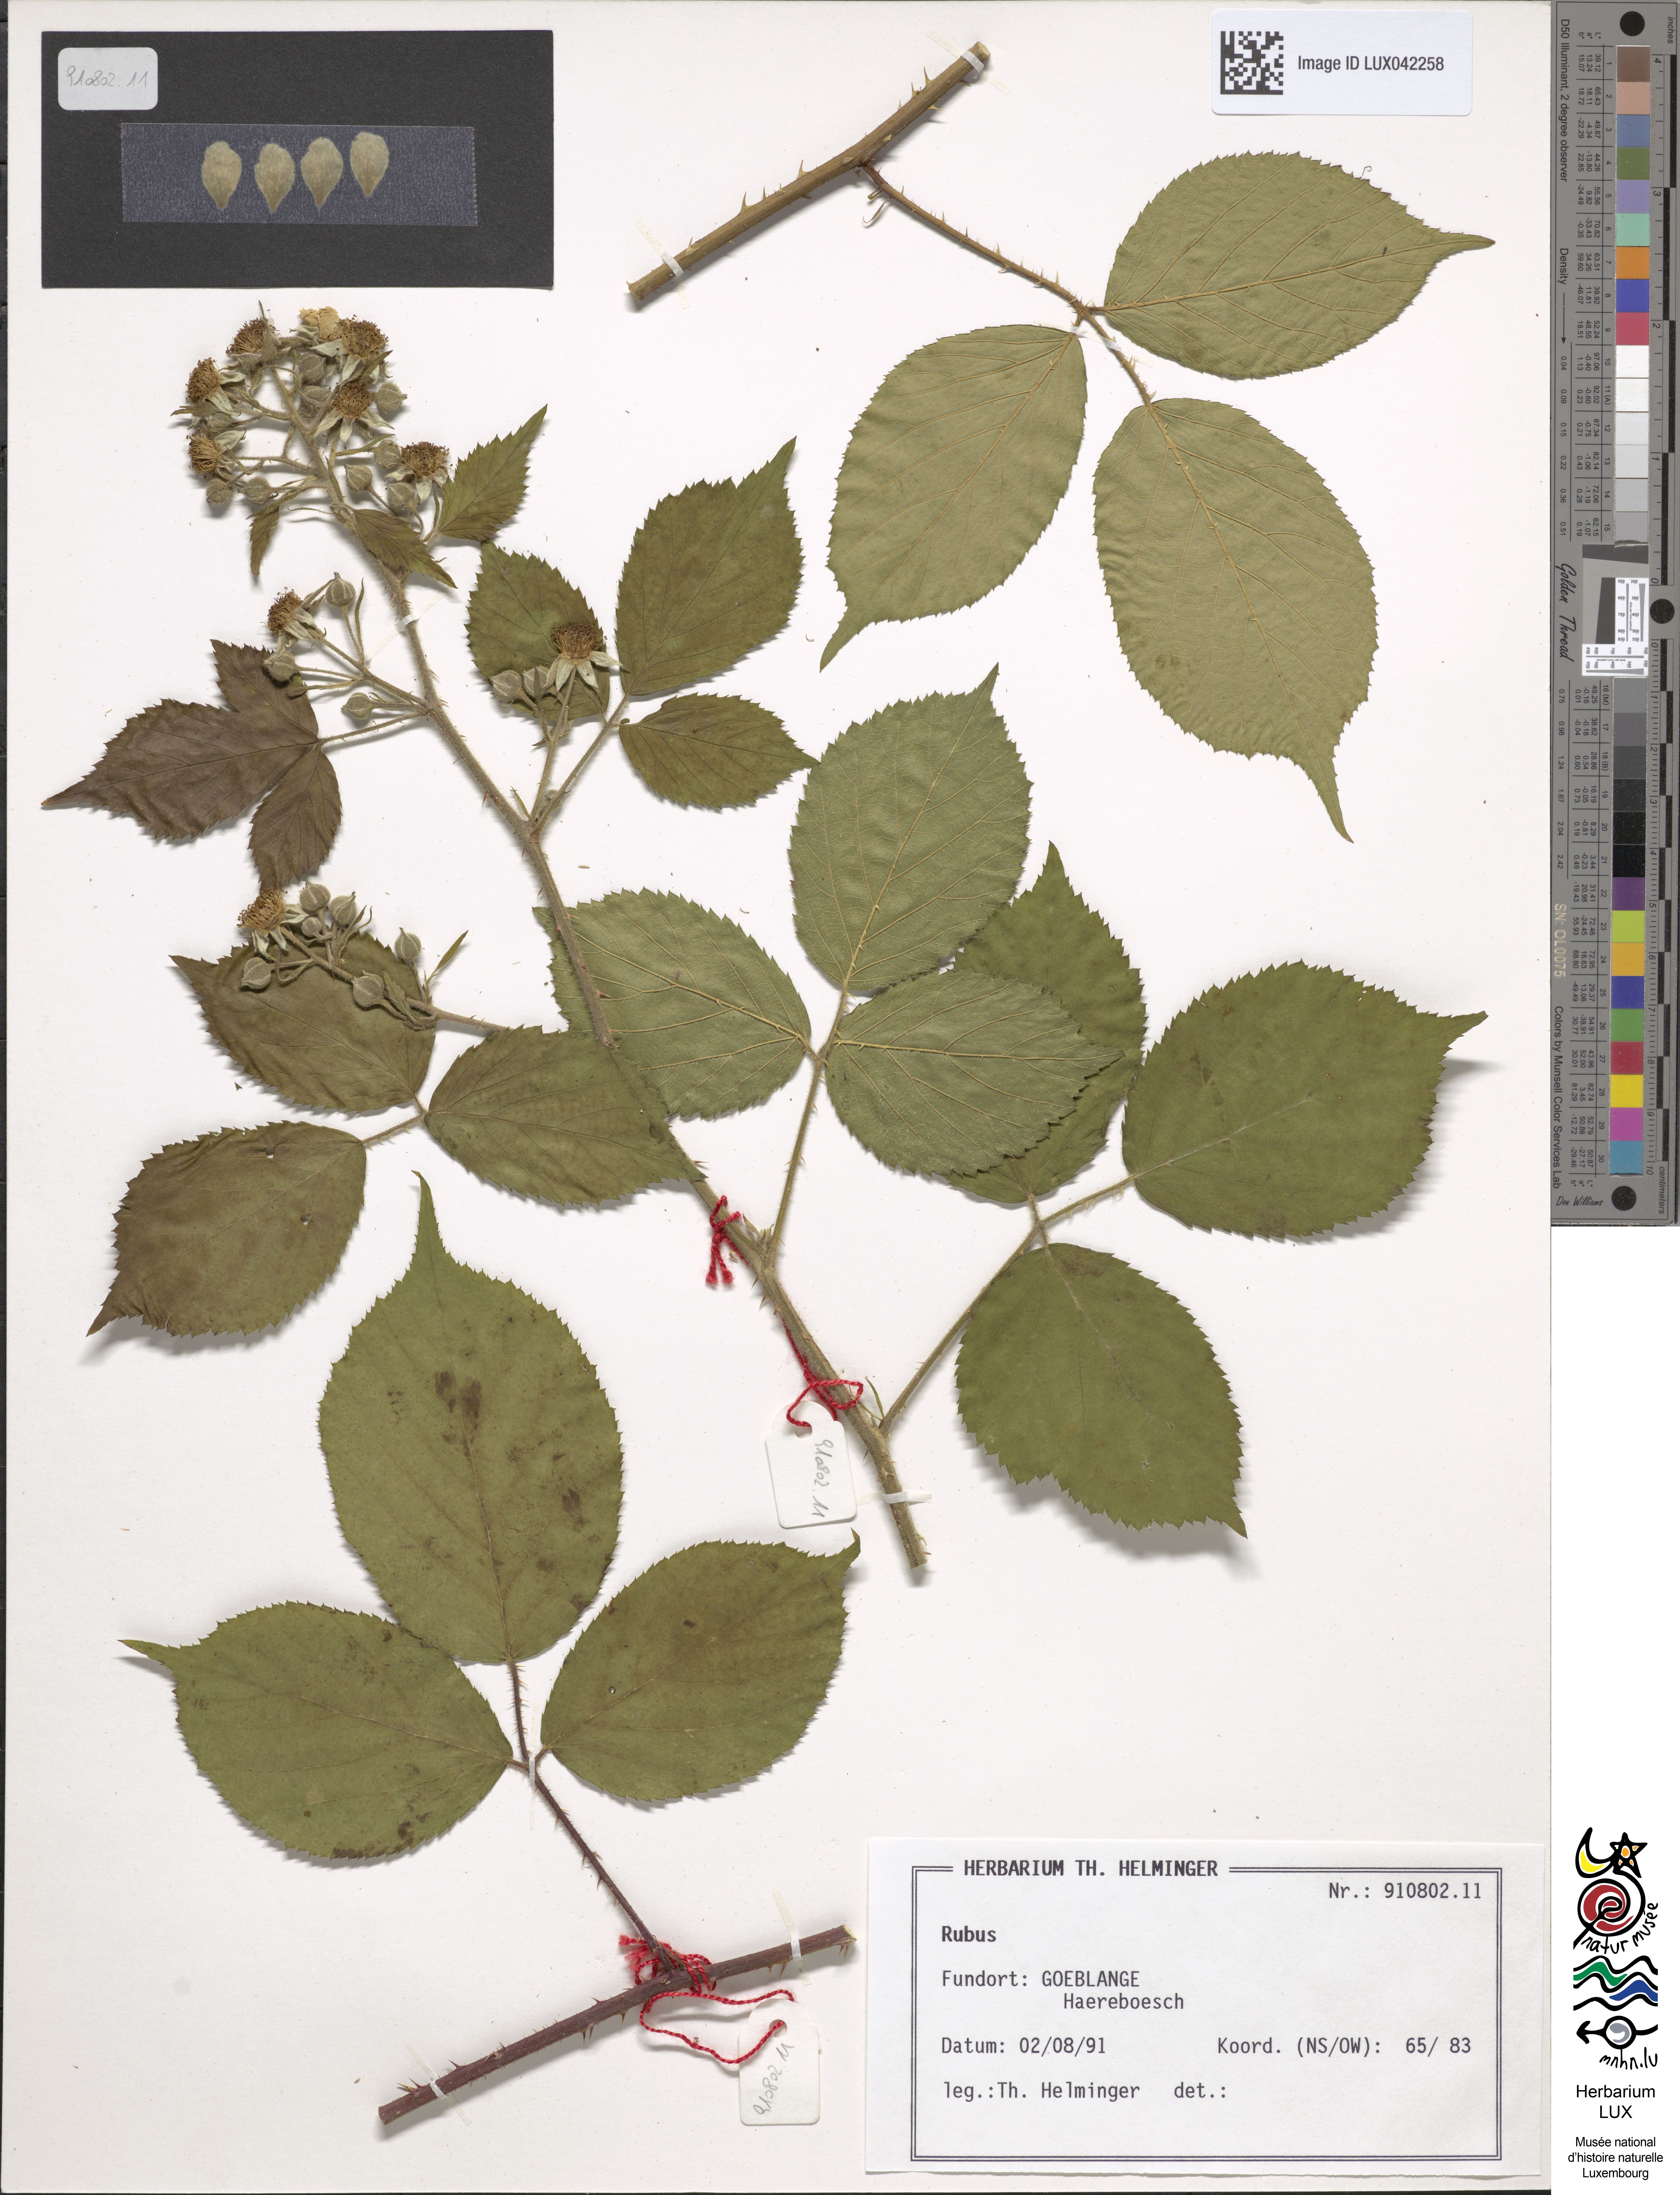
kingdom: Plantae
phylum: Tracheophyta
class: Magnoliopsida
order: Rosales
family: Rosaceae
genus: Rubus
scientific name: Rubus
